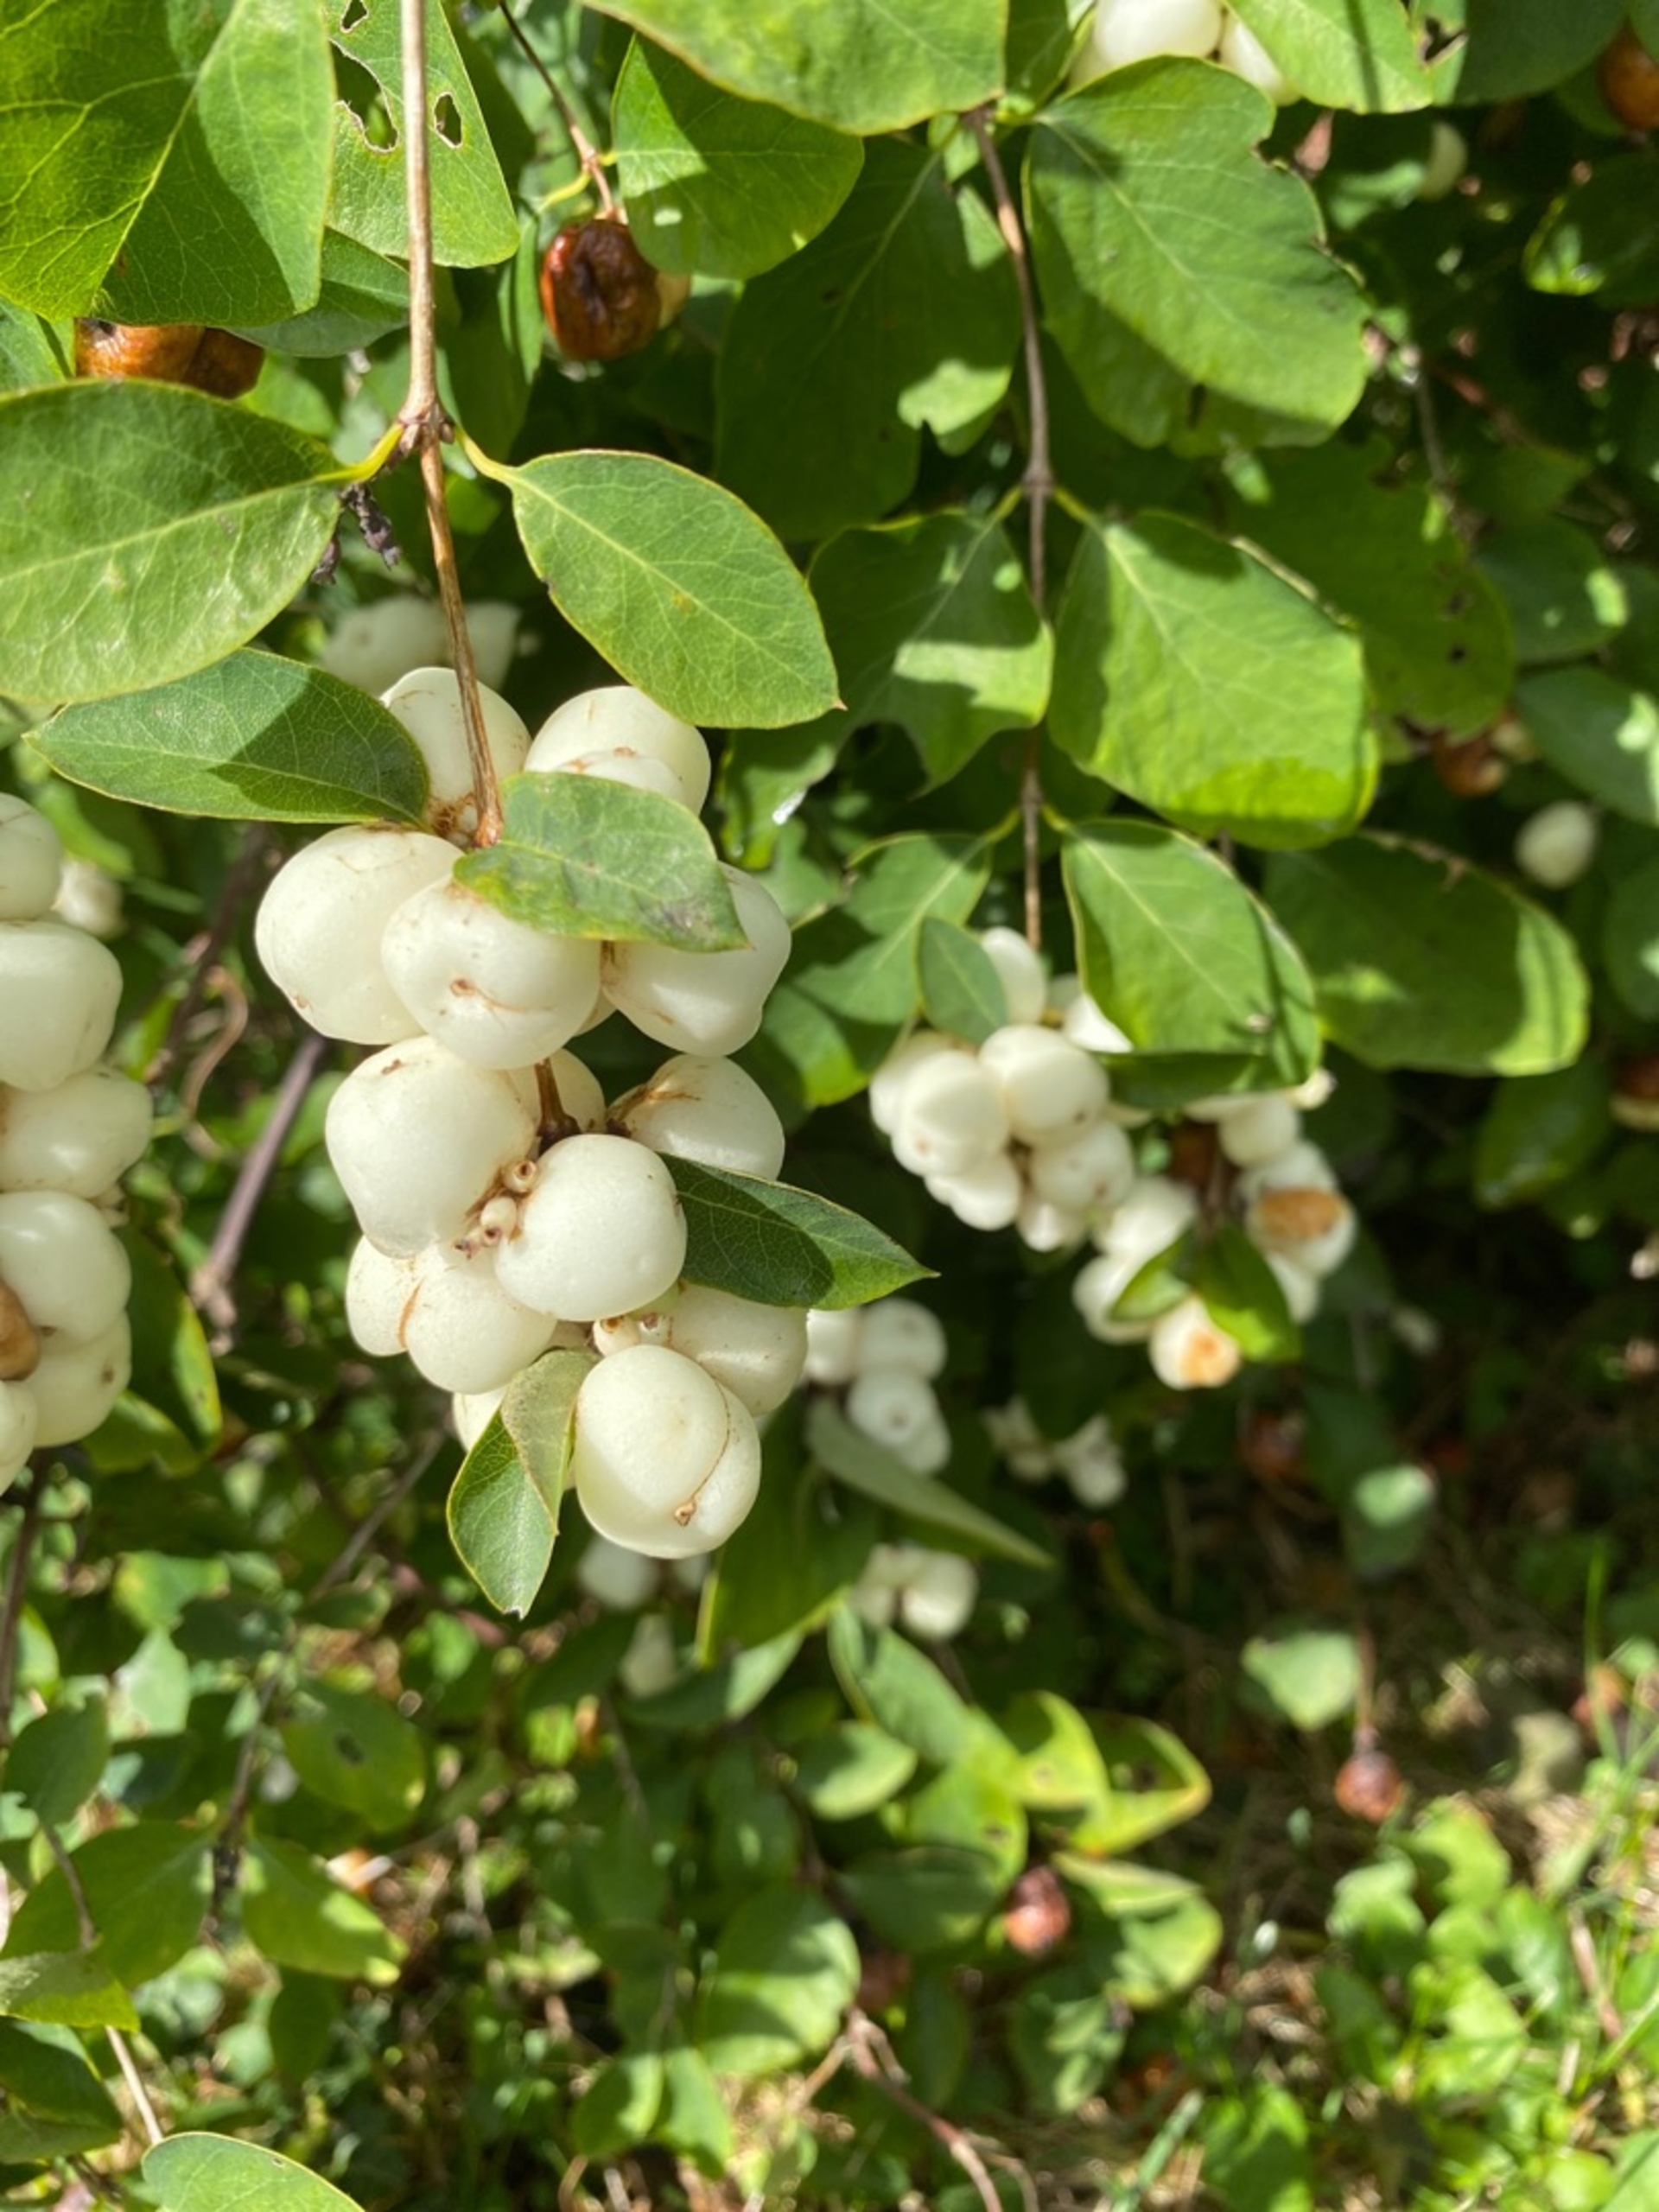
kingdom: Plantae
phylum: Tracheophyta
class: Magnoliopsida
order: Dipsacales
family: Caprifoliaceae
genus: Symphoricarpos
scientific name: Symphoricarpos albus
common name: Almindelig snebær
